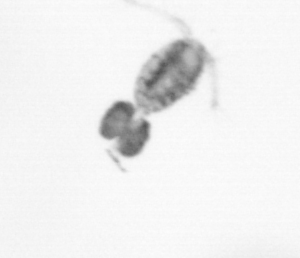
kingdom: Animalia
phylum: Arthropoda
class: Copepoda
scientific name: Copepoda
